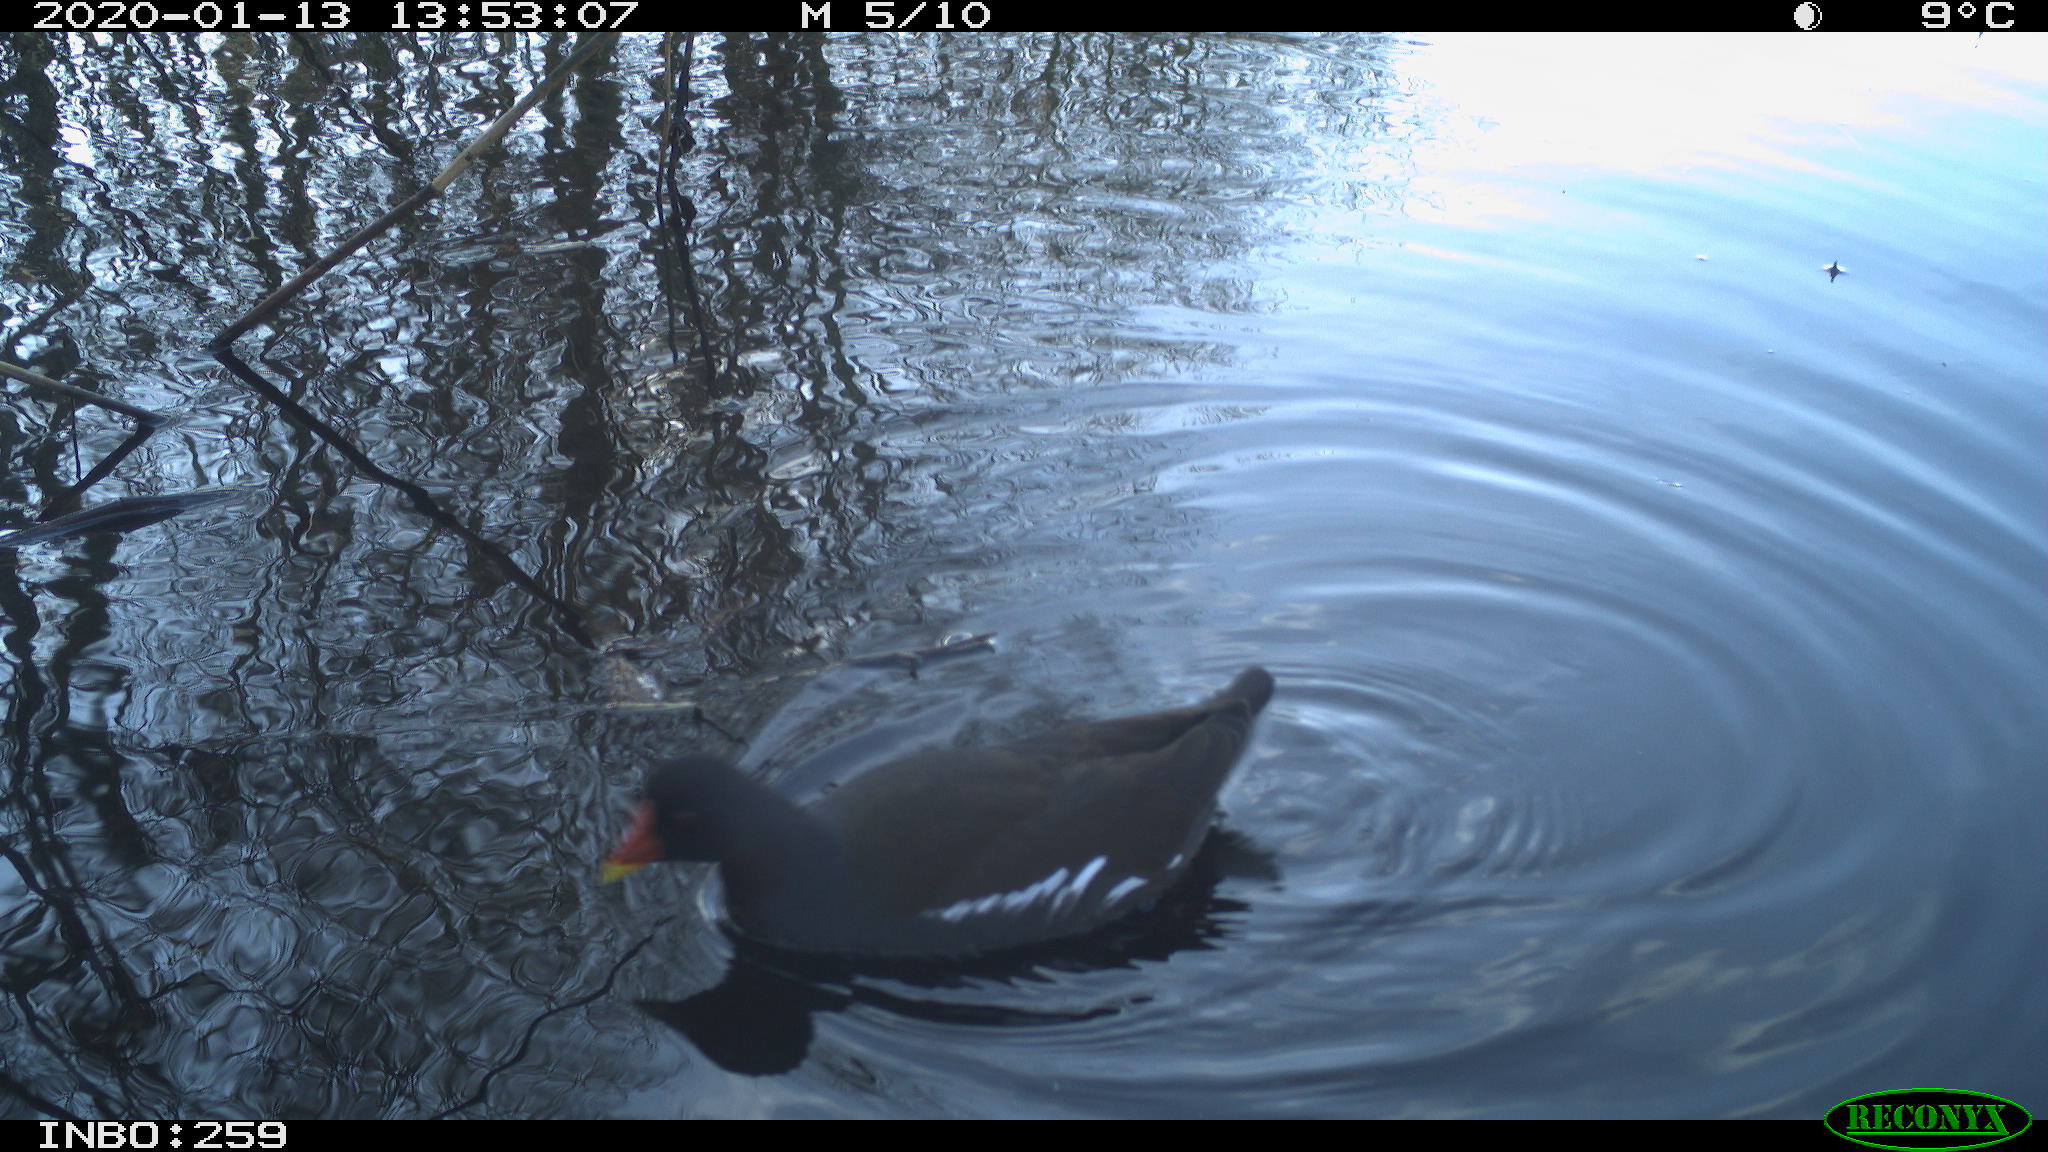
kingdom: Animalia
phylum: Chordata
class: Aves
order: Gruiformes
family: Rallidae
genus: Gallinula
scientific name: Gallinula chloropus
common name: Common moorhen
